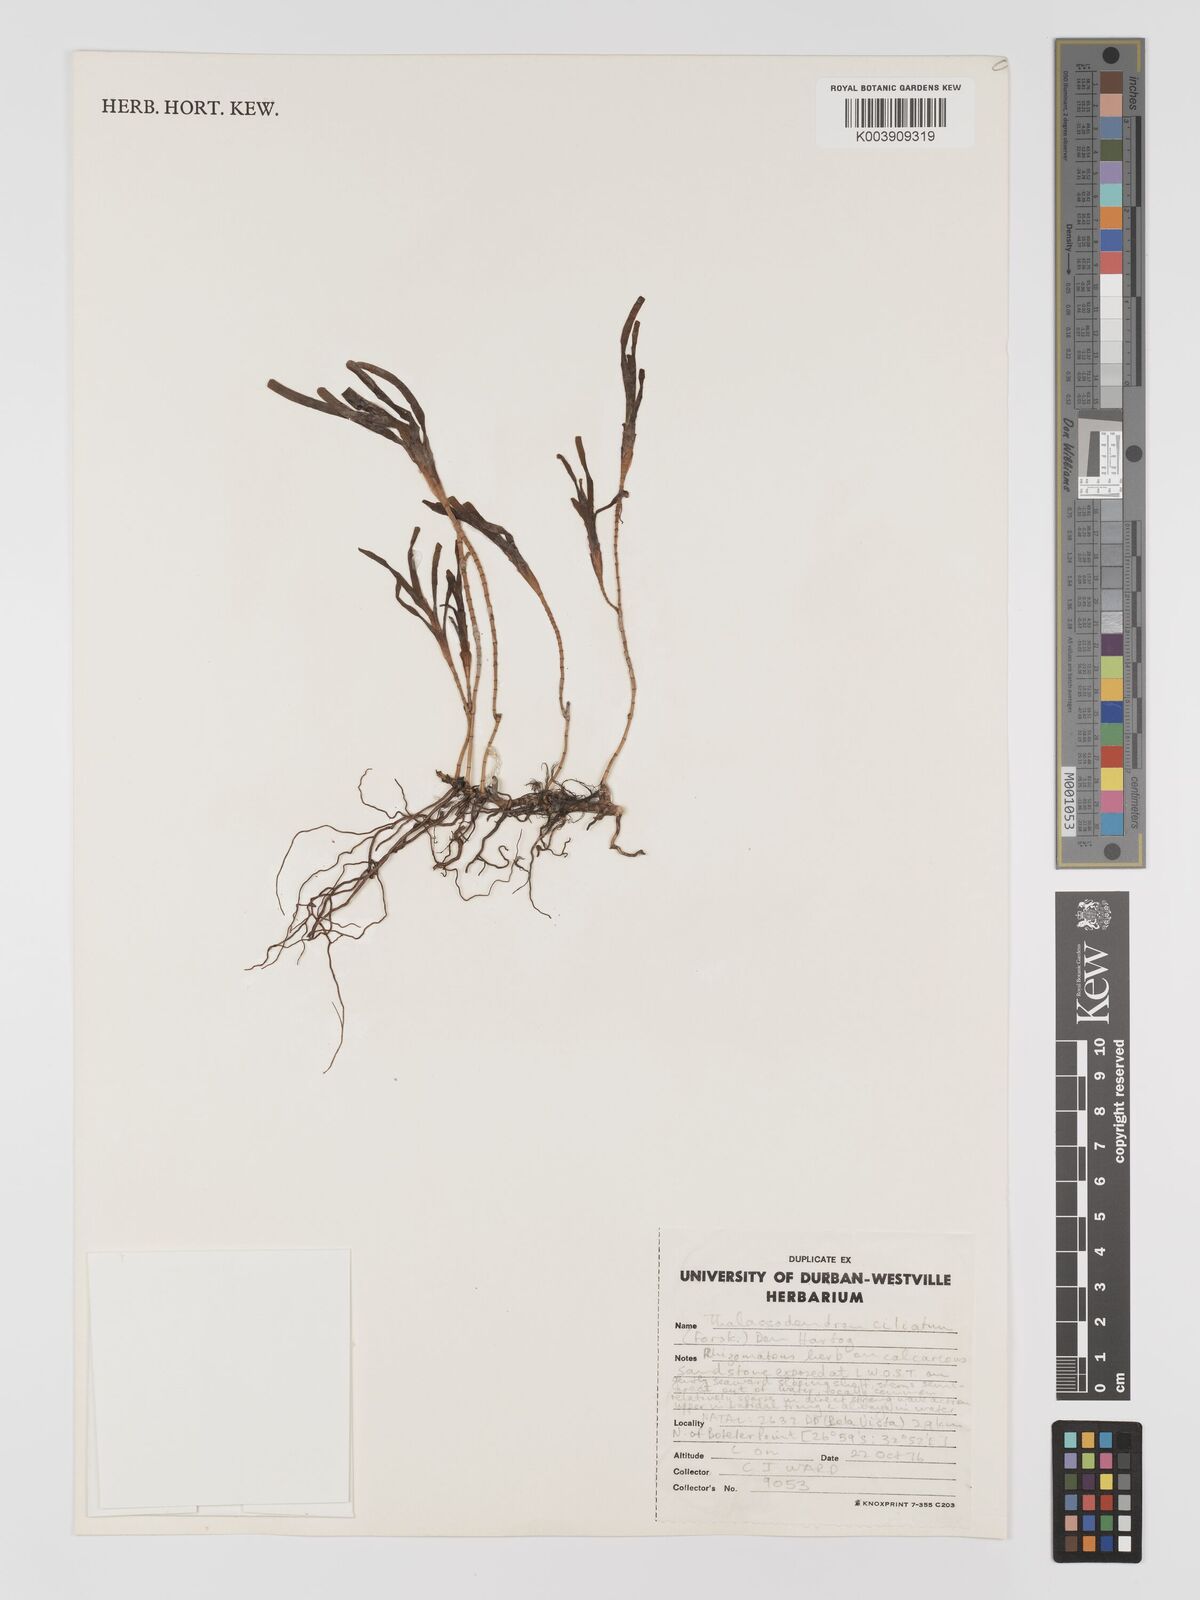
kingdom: Plantae
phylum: Tracheophyta
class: Liliopsida
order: Alismatales
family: Cymodoceaceae
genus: Thalassodendron
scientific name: Thalassodendron ciliatum
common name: Species code: tc
